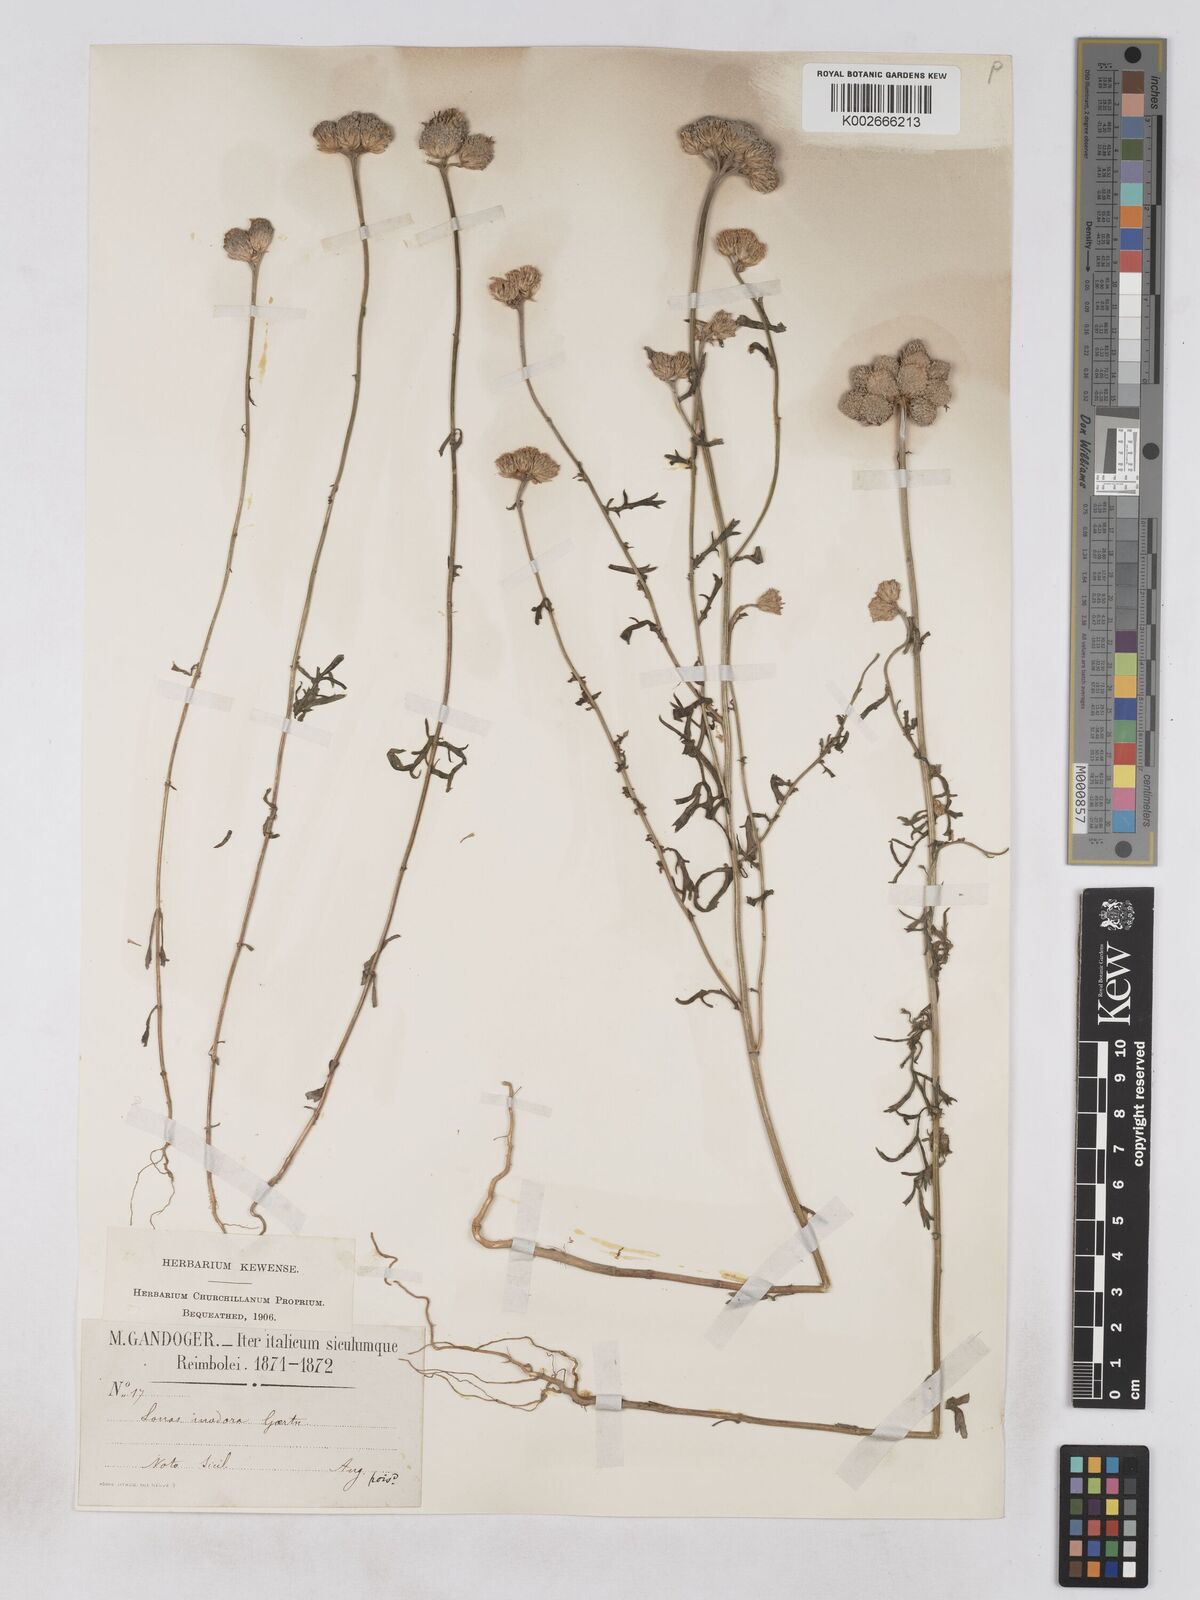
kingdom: Plantae
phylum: Tracheophyta
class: Magnoliopsida
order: Asterales
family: Asteraceae
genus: Lonas
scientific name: Lonas
